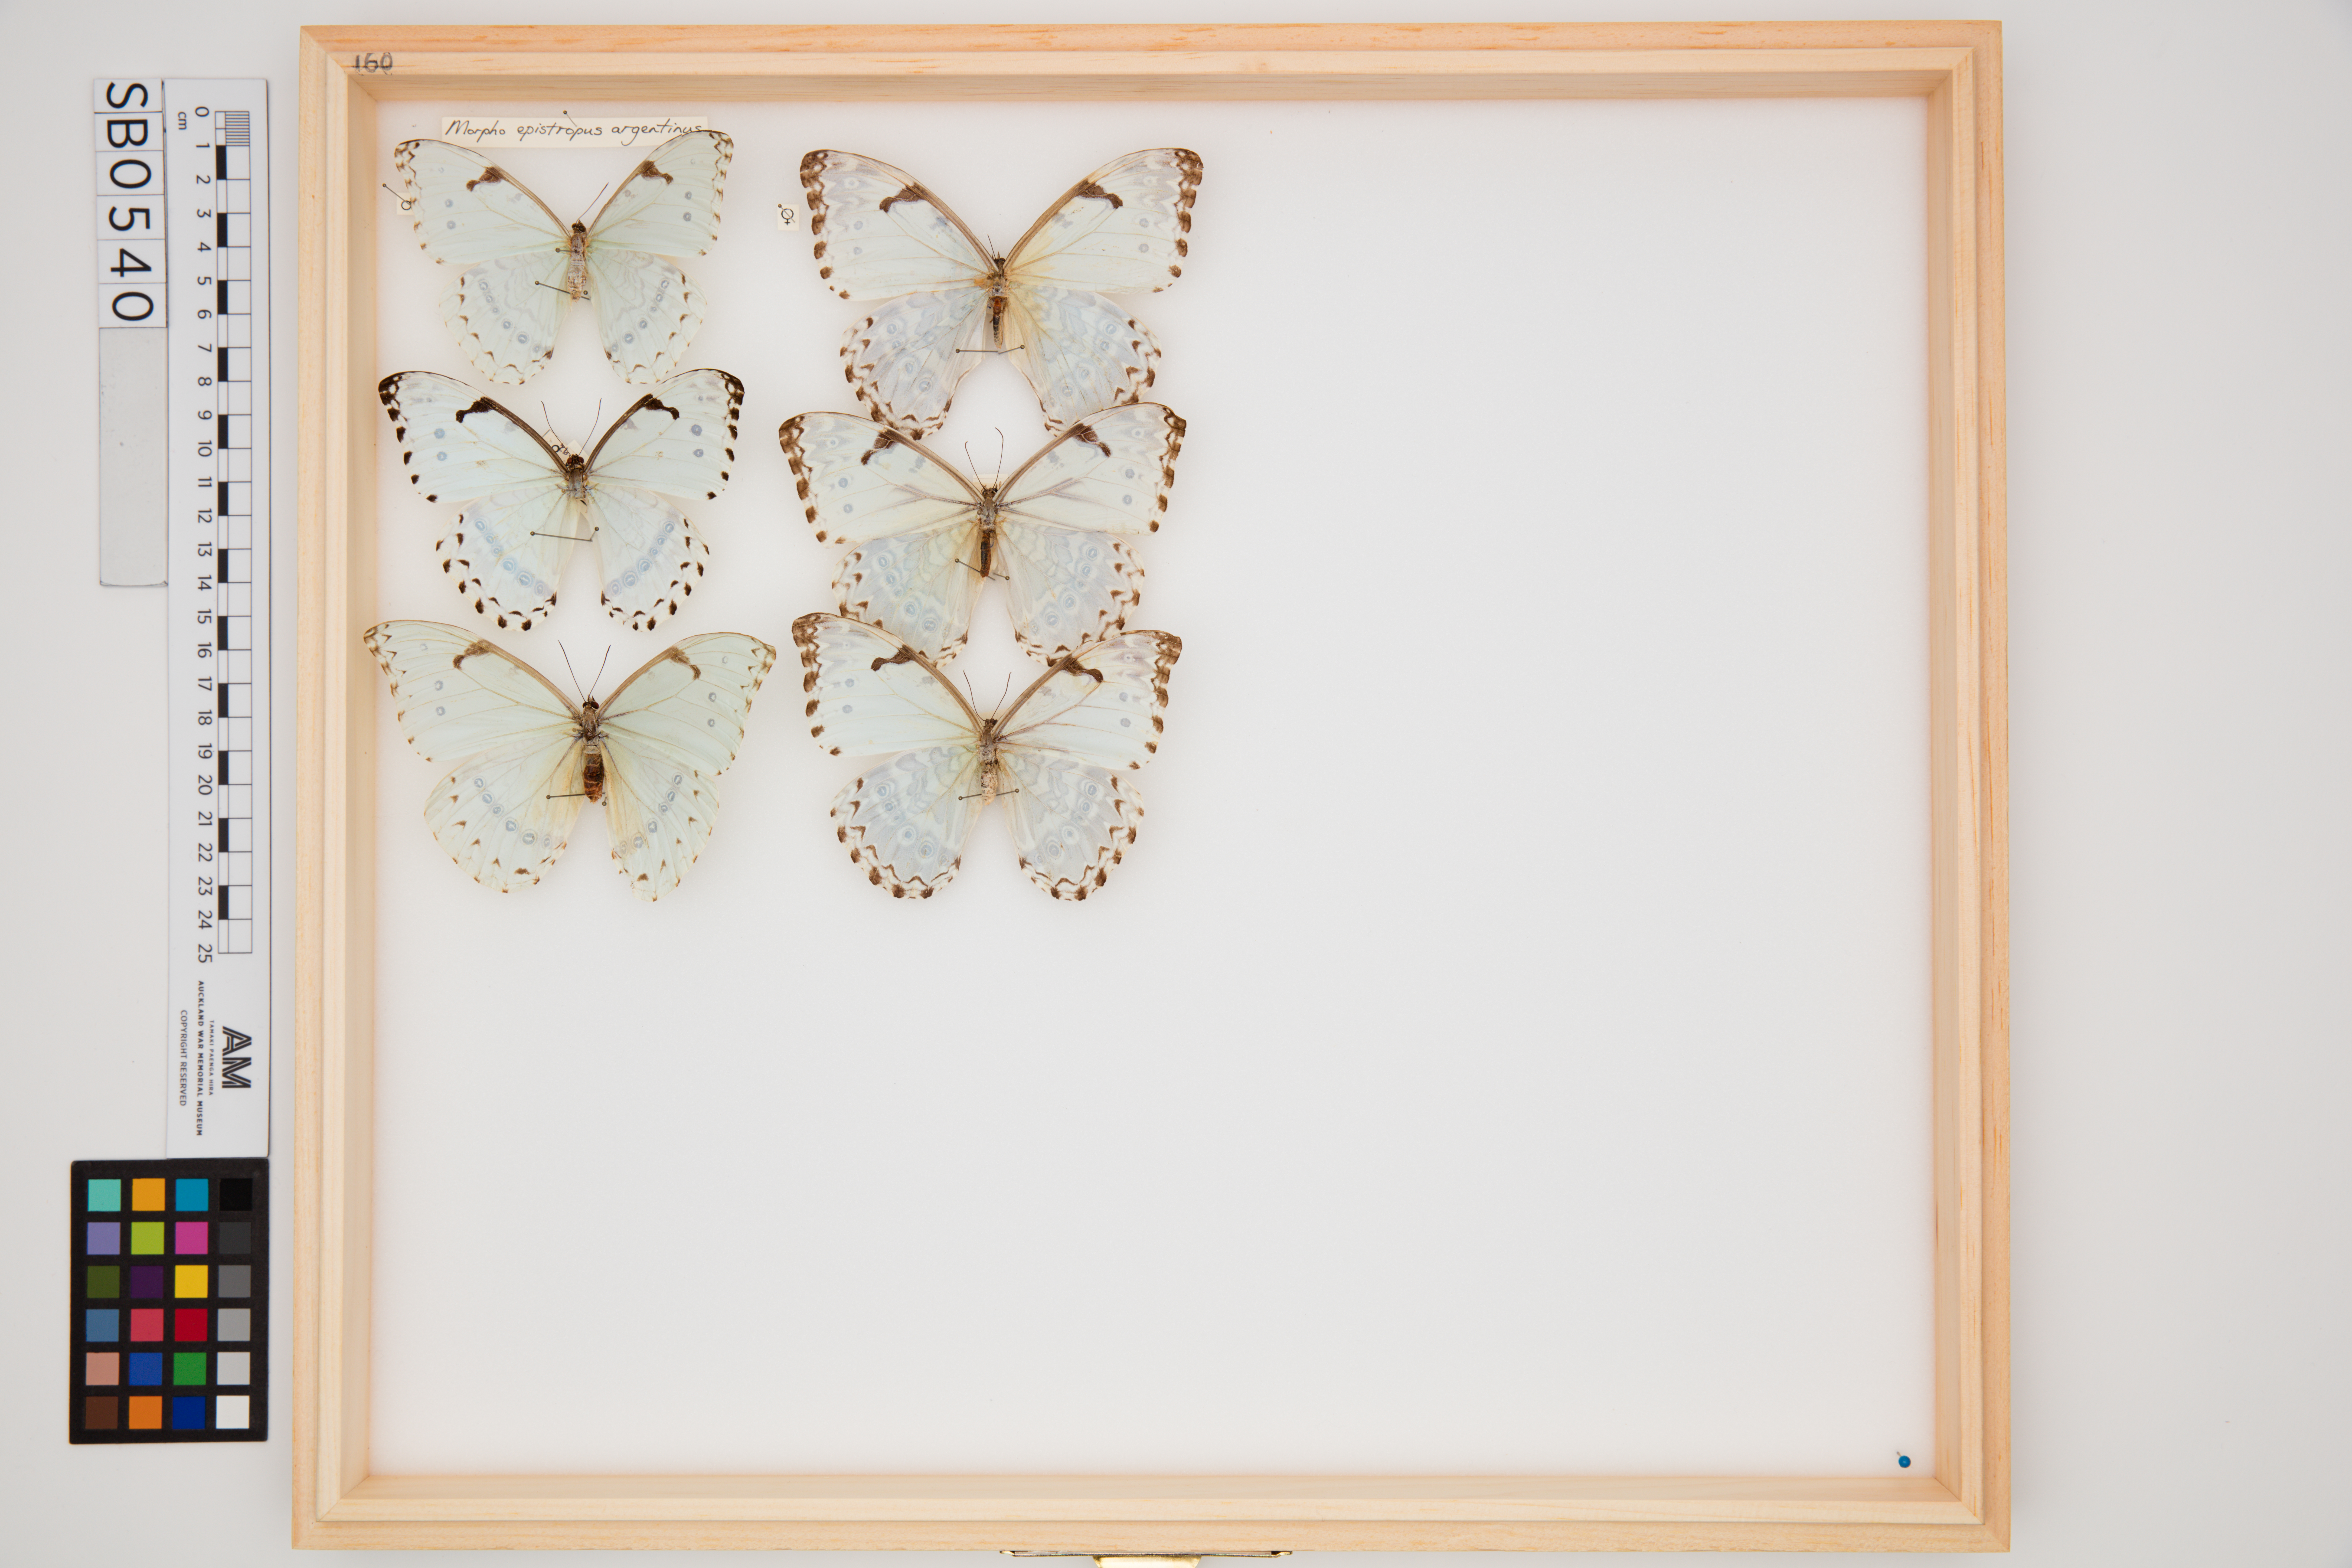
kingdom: Animalia
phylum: Arthropoda
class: Insecta
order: Lepidoptera
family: Nymphalidae
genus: Morpho
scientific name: Morpho epistrophus
